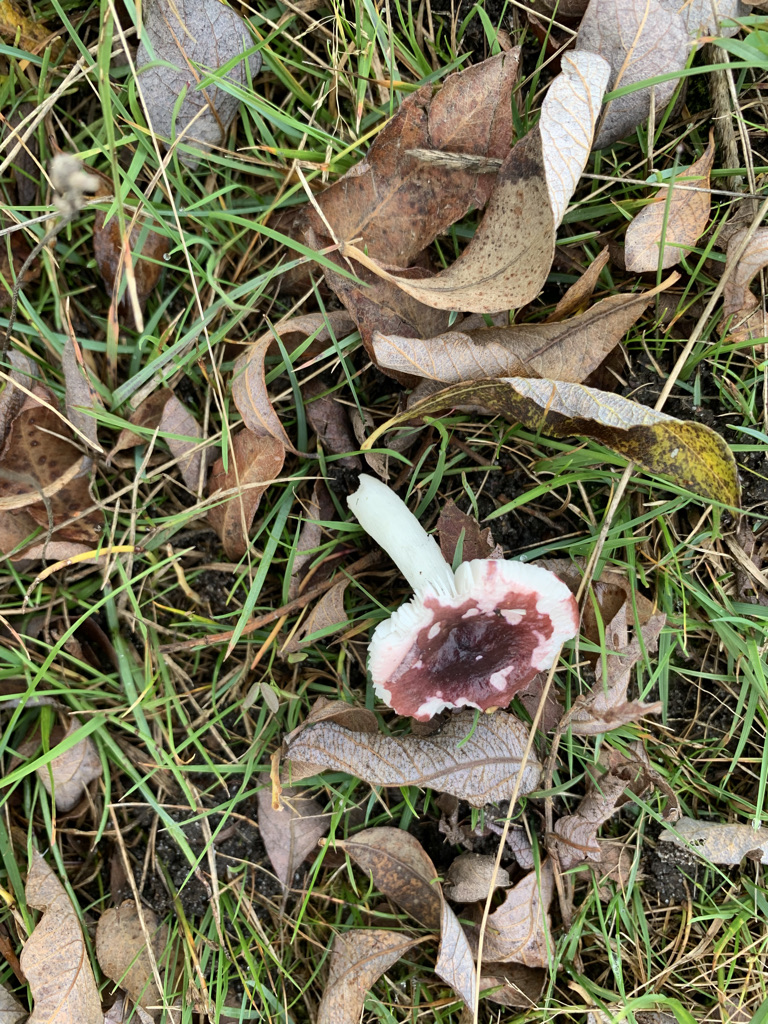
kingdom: Fungi
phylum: Basidiomycota
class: Agaricomycetes
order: Russulales
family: Russulaceae
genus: Russula
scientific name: Russula laccata
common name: klit-skørhat
